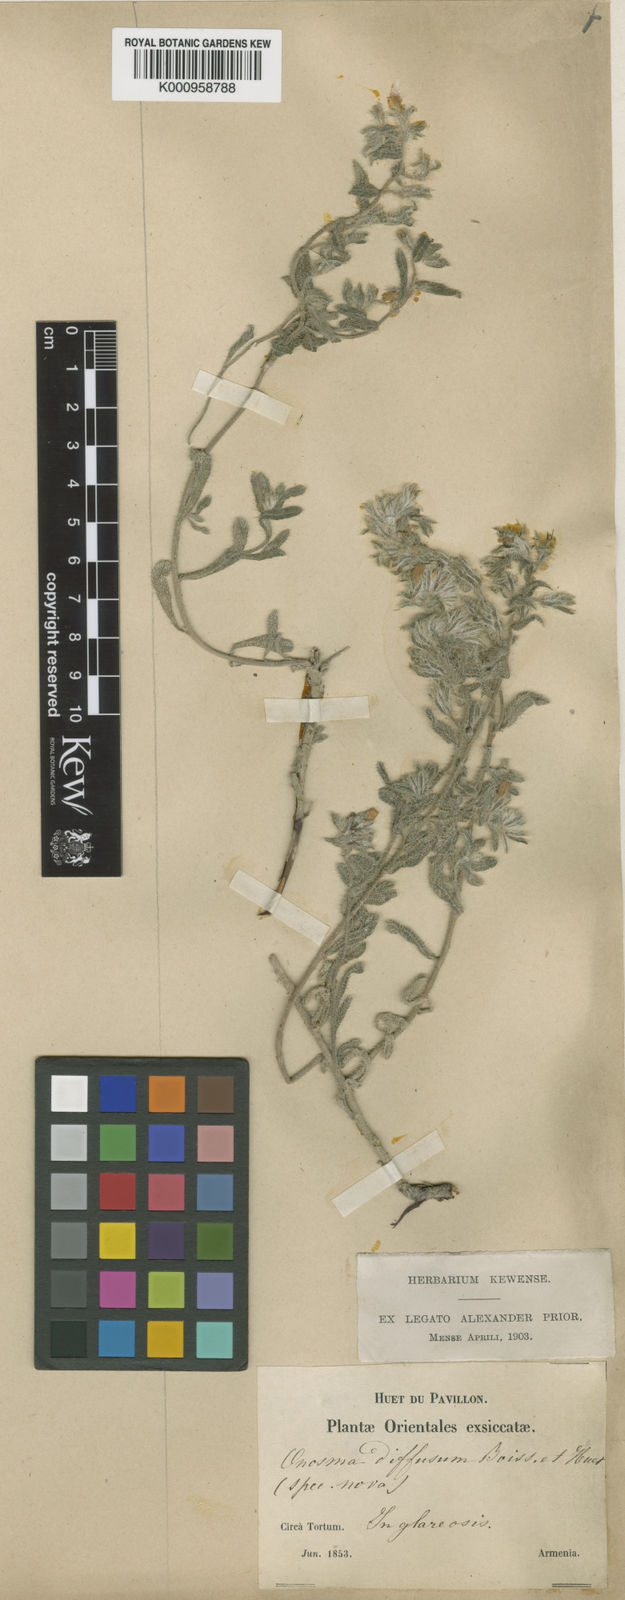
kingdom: Plantae
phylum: Tracheophyta
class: Magnoliopsida
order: Boraginales
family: Boraginaceae
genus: Onosma
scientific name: Onosma tenuiflora
